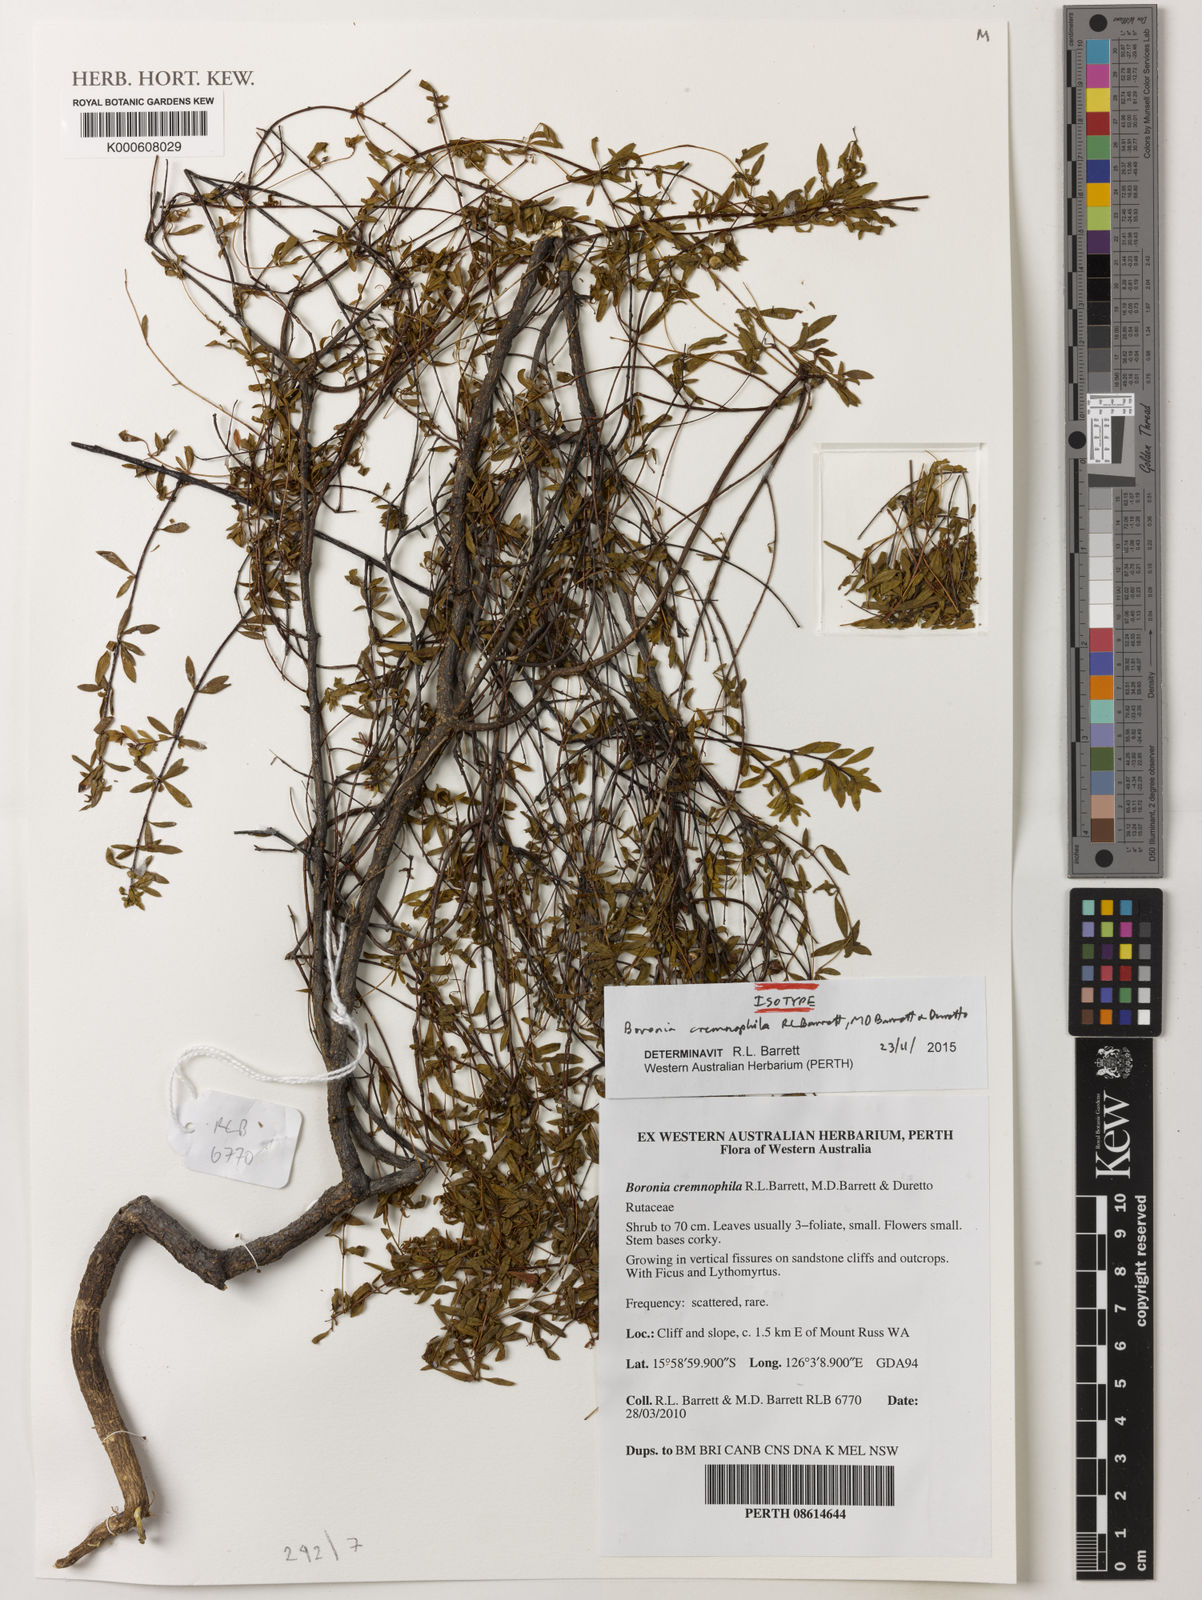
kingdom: Plantae
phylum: Tracheophyta
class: Magnoliopsida
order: Sapindales
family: Rutaceae
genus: Boronia
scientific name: Boronia cremnophila
